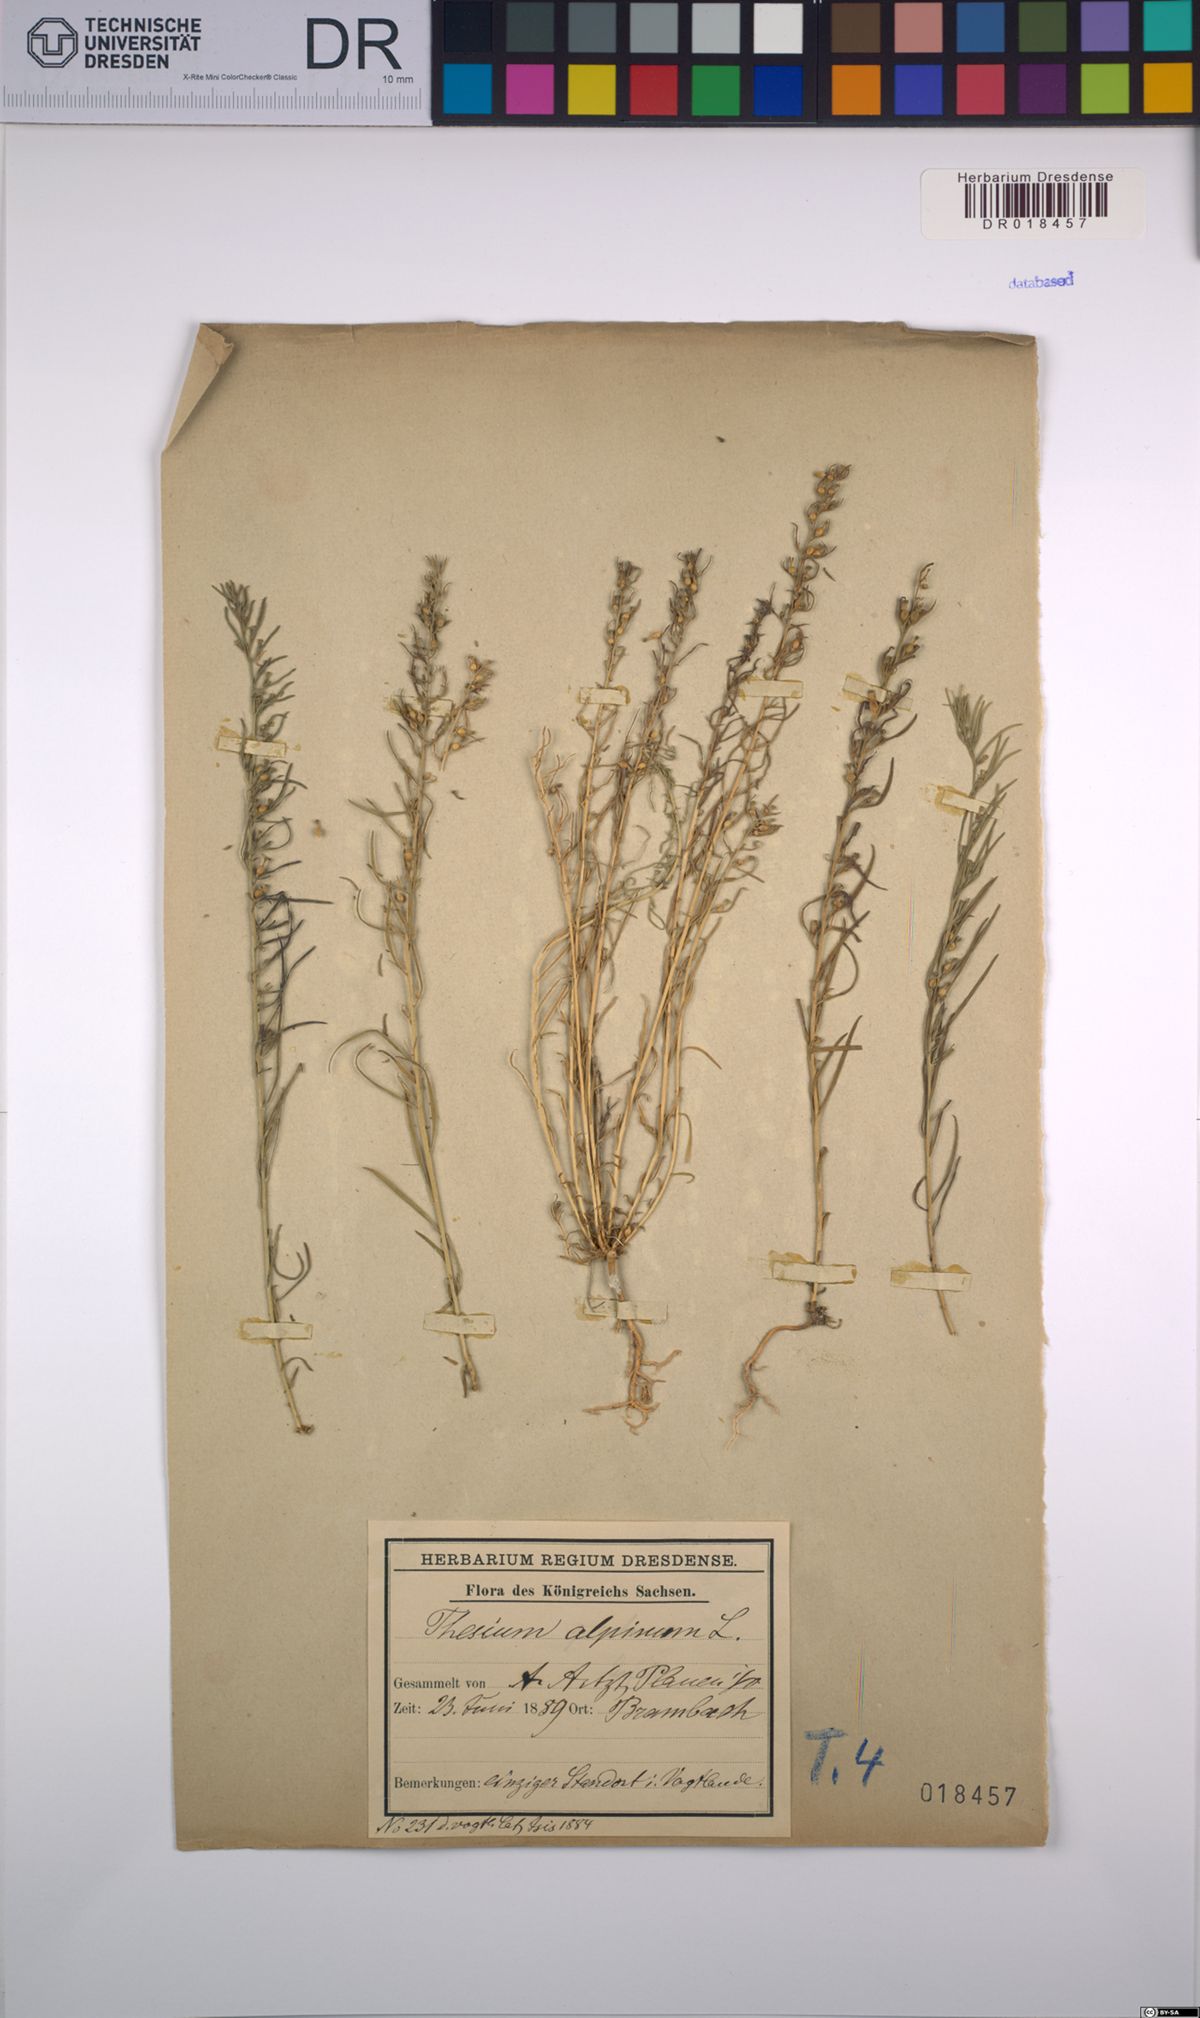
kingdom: Plantae
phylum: Tracheophyta
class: Magnoliopsida
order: Santalales
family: Thesiaceae
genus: Thesium
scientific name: Thesium alpinum
